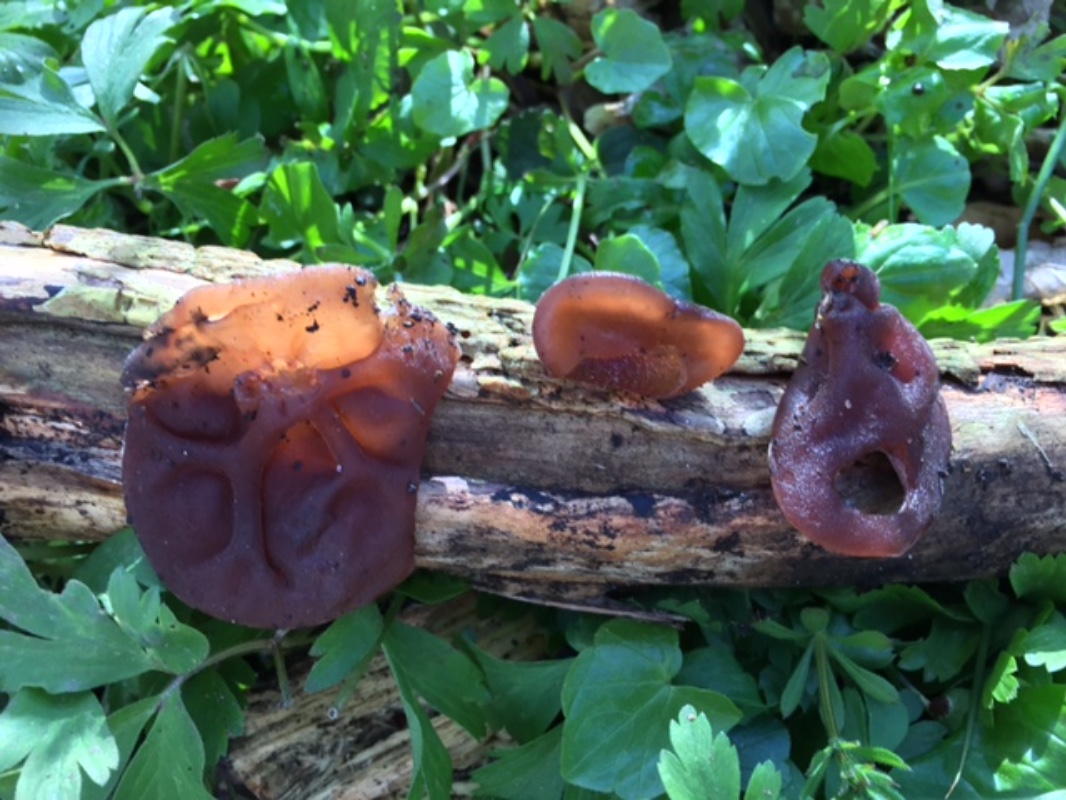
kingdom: Fungi
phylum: Basidiomycota
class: Agaricomycetes
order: Auriculariales
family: Auriculariaceae
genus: Auricularia
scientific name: Auricularia auricula-judae
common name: almindelig judasøre
